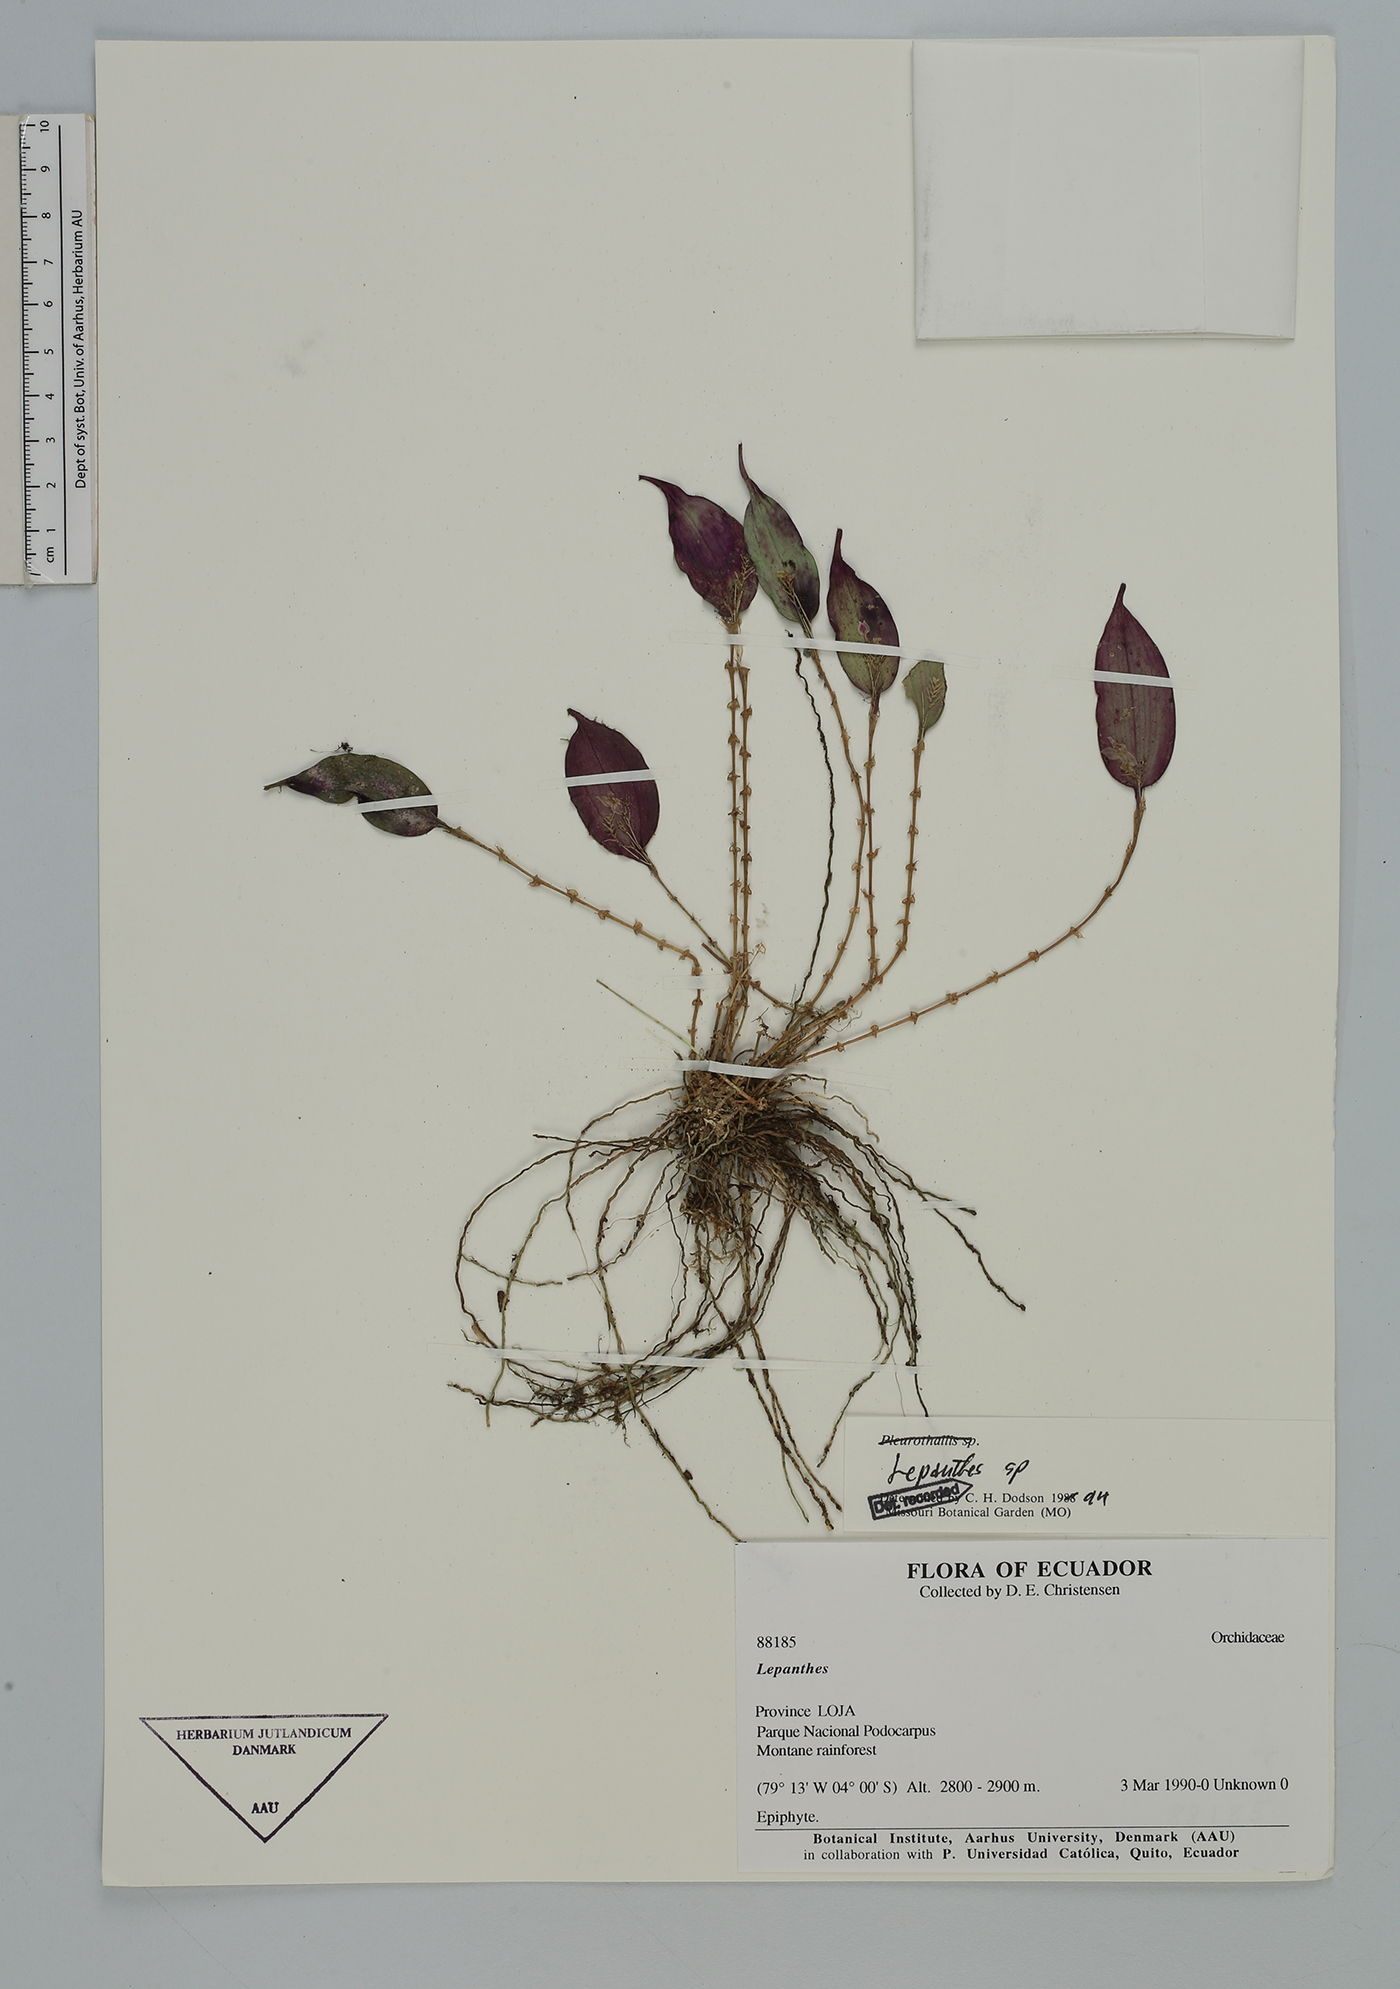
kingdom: Plantae
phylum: Tracheophyta
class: Liliopsida
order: Asparagales
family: Orchidaceae
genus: Lepanthes
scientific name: Lepanthes
